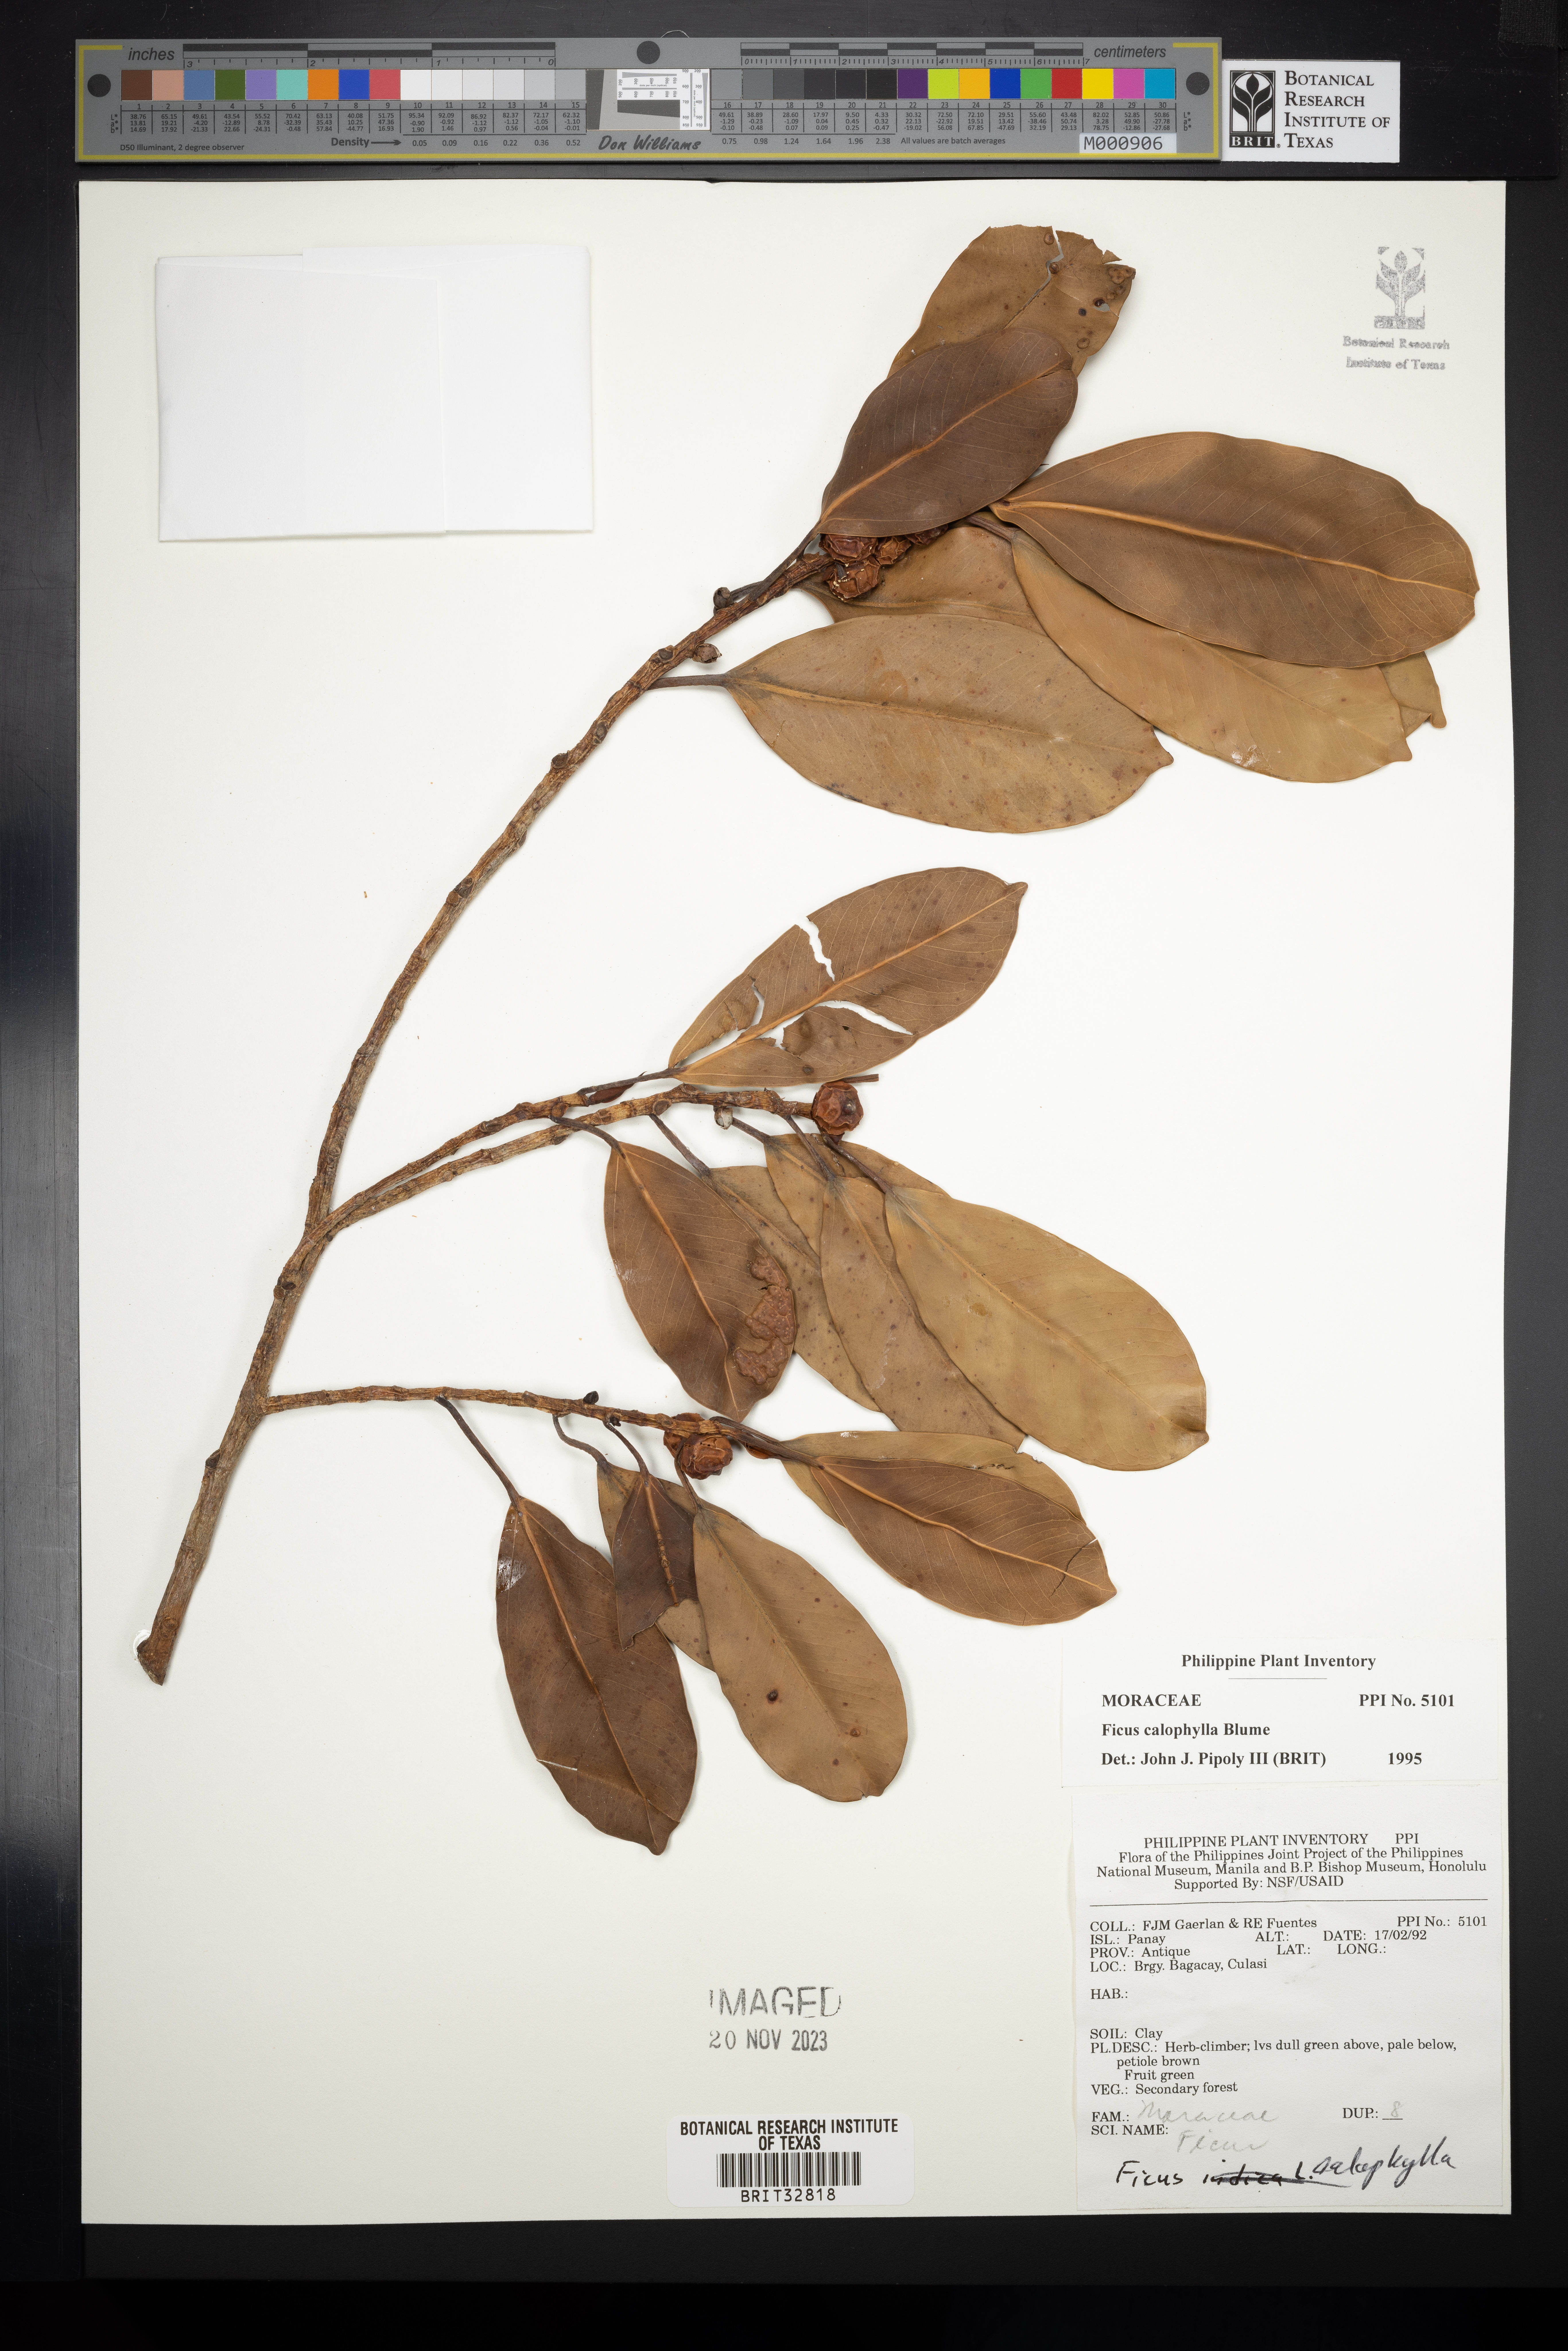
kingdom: Plantae
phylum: Tracheophyta
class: Magnoliopsida
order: Rosales
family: Moraceae
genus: Ficus
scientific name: Ficus callophylla
